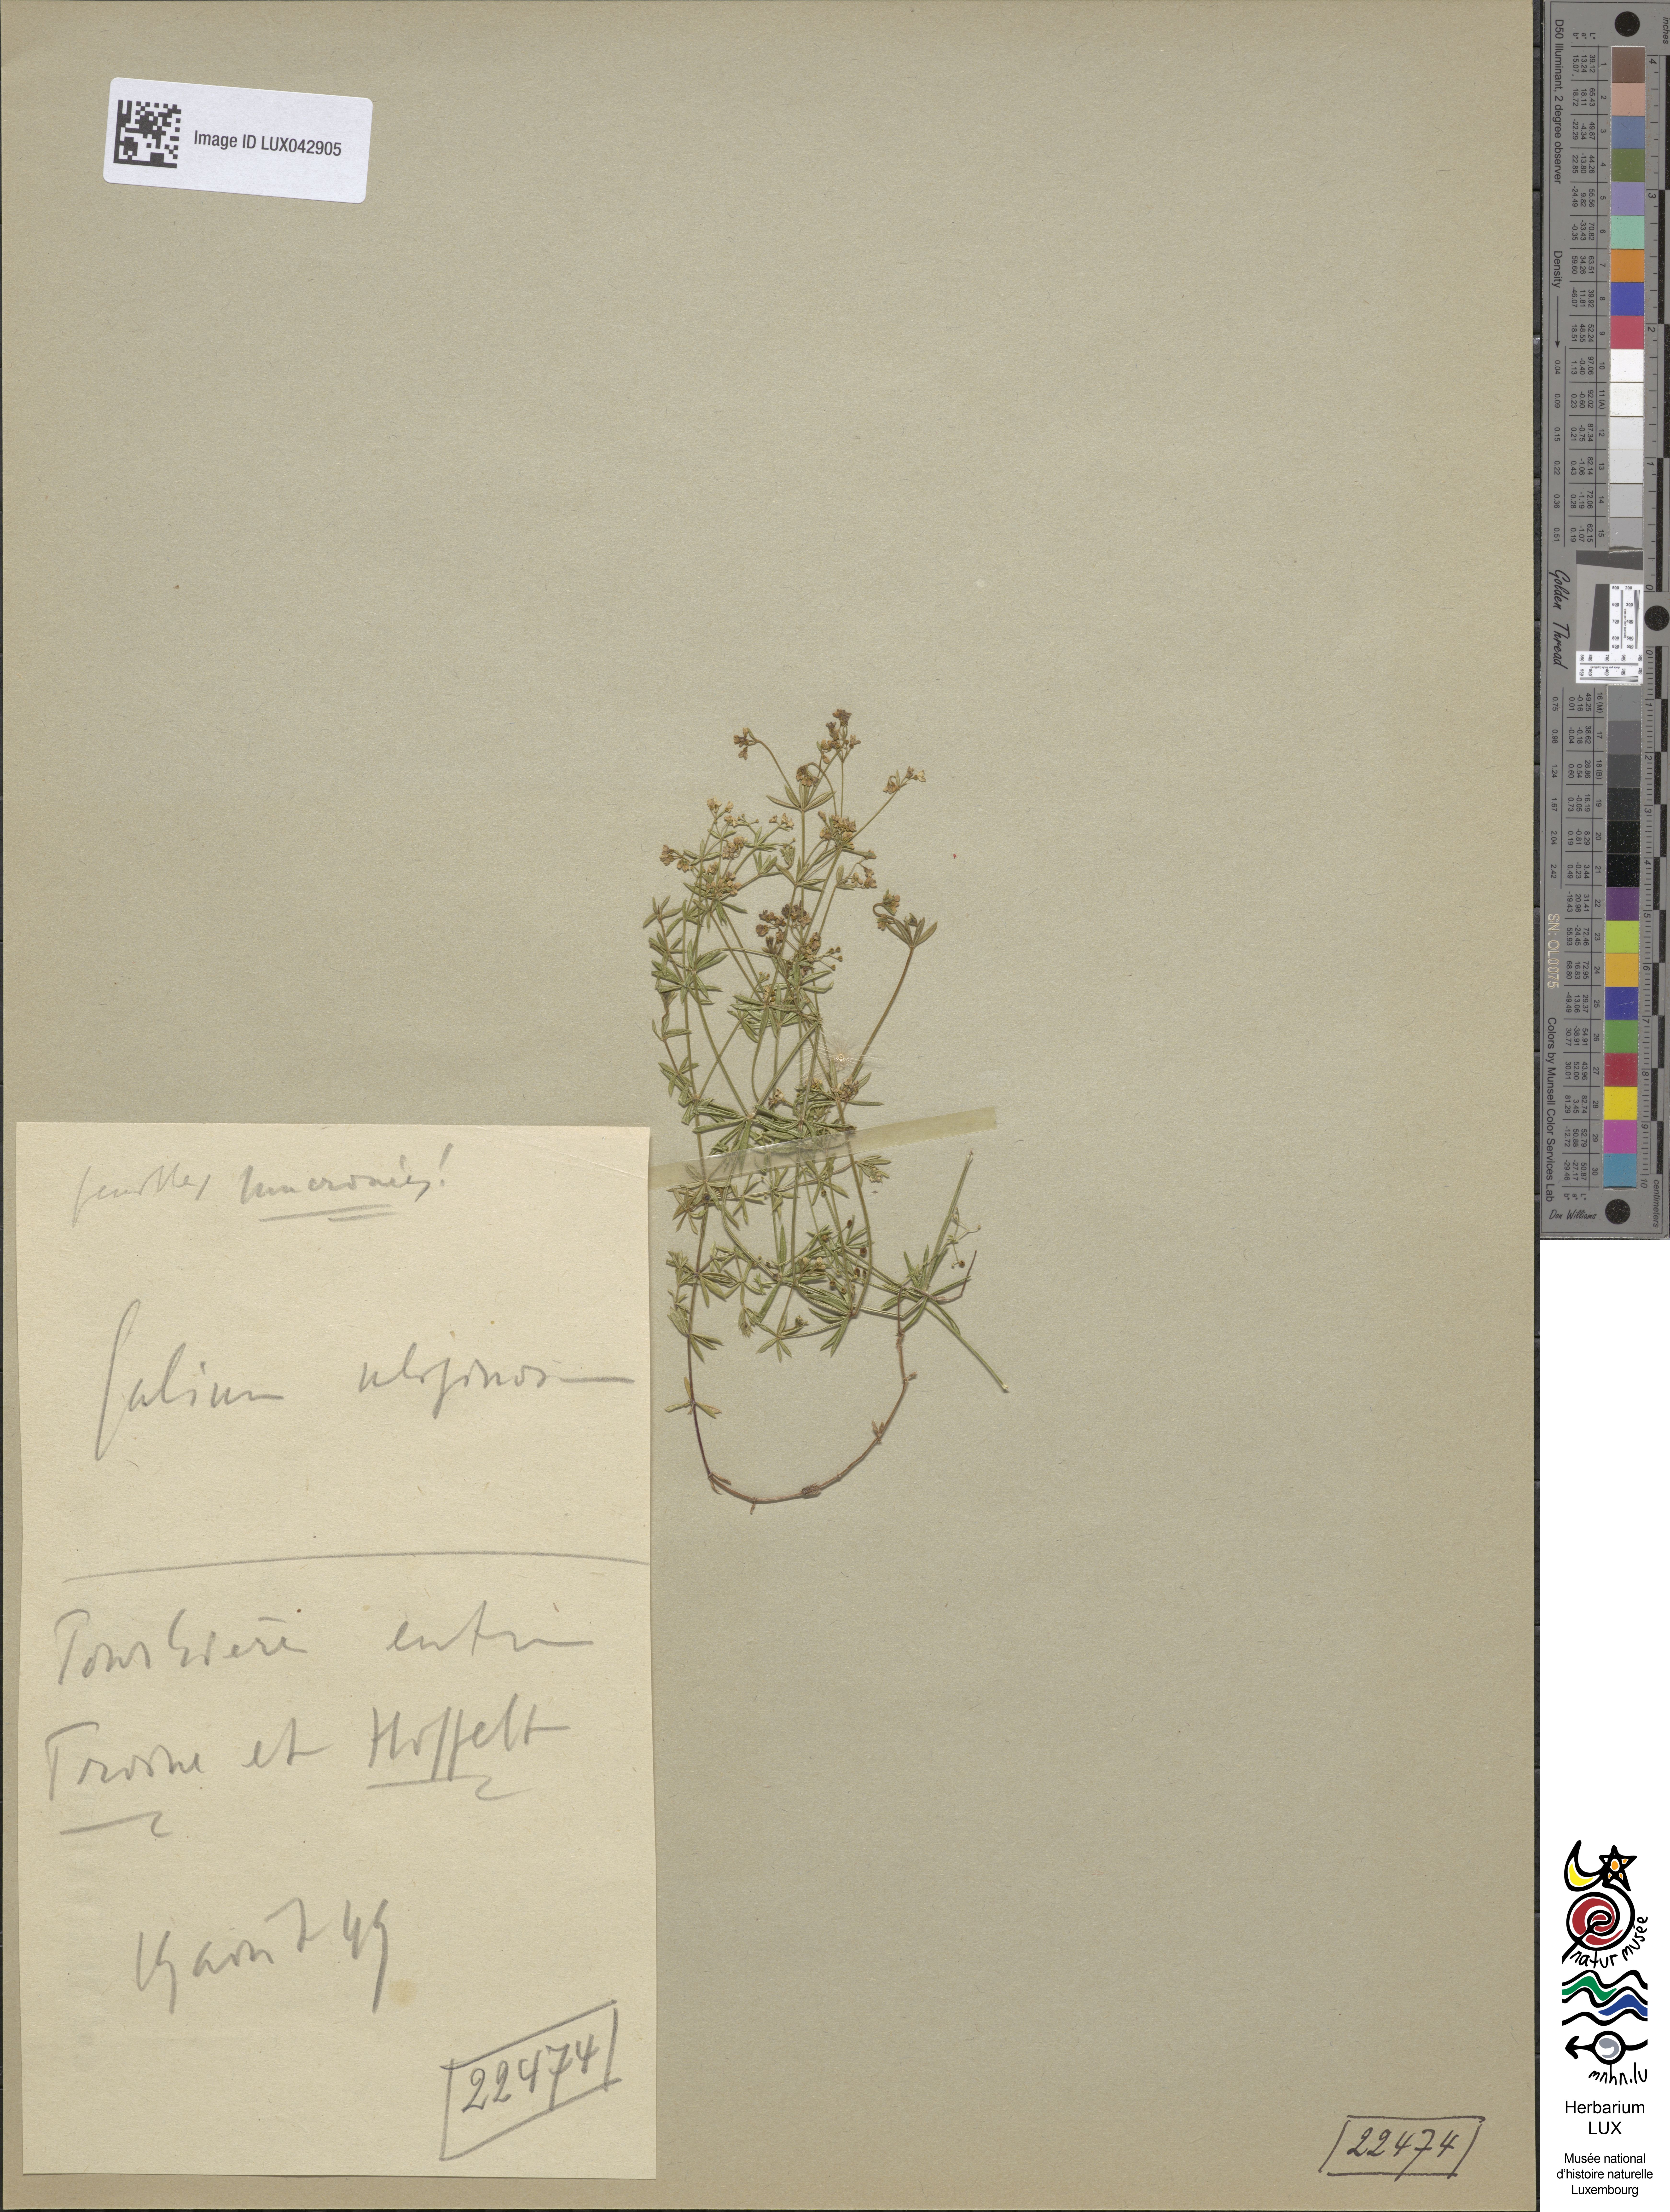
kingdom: Plantae
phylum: Tracheophyta
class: Magnoliopsida
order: Gentianales
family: Rubiaceae
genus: Galium
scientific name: Galium uliginosum
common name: Fen bedstraw
